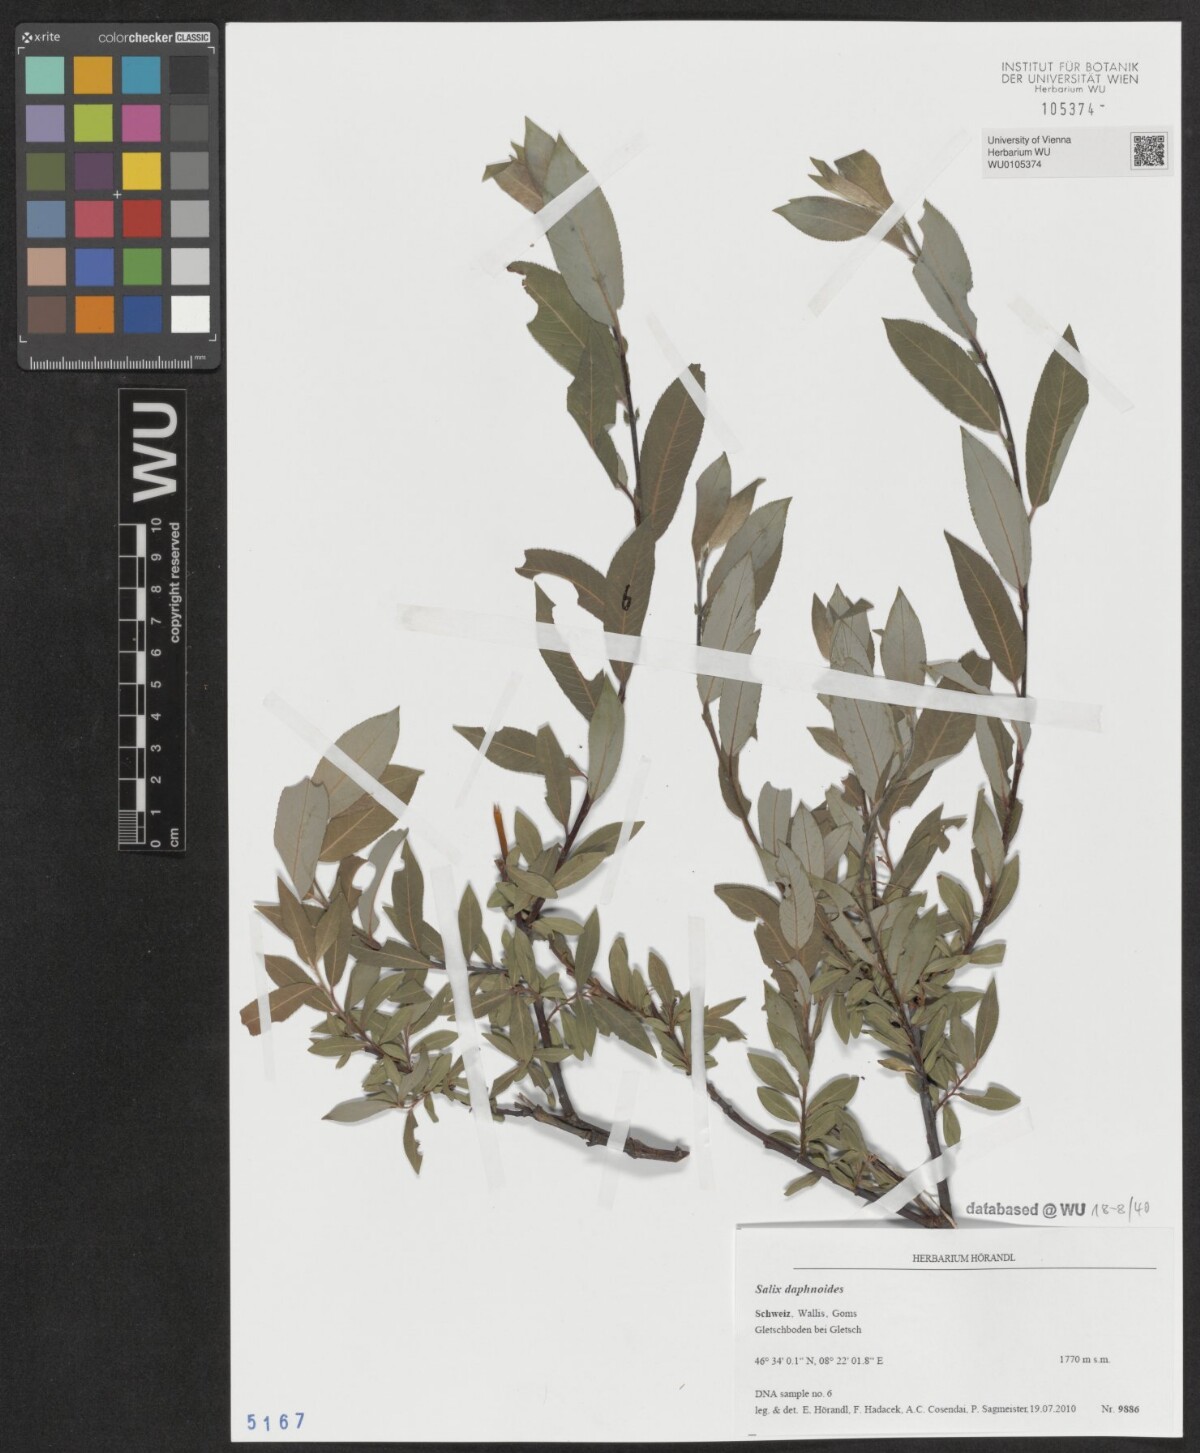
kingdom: Plantae
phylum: Tracheophyta
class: Magnoliopsida
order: Malpighiales
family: Salicaceae
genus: Salix
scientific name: Salix daphnoides
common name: European violet-willow
